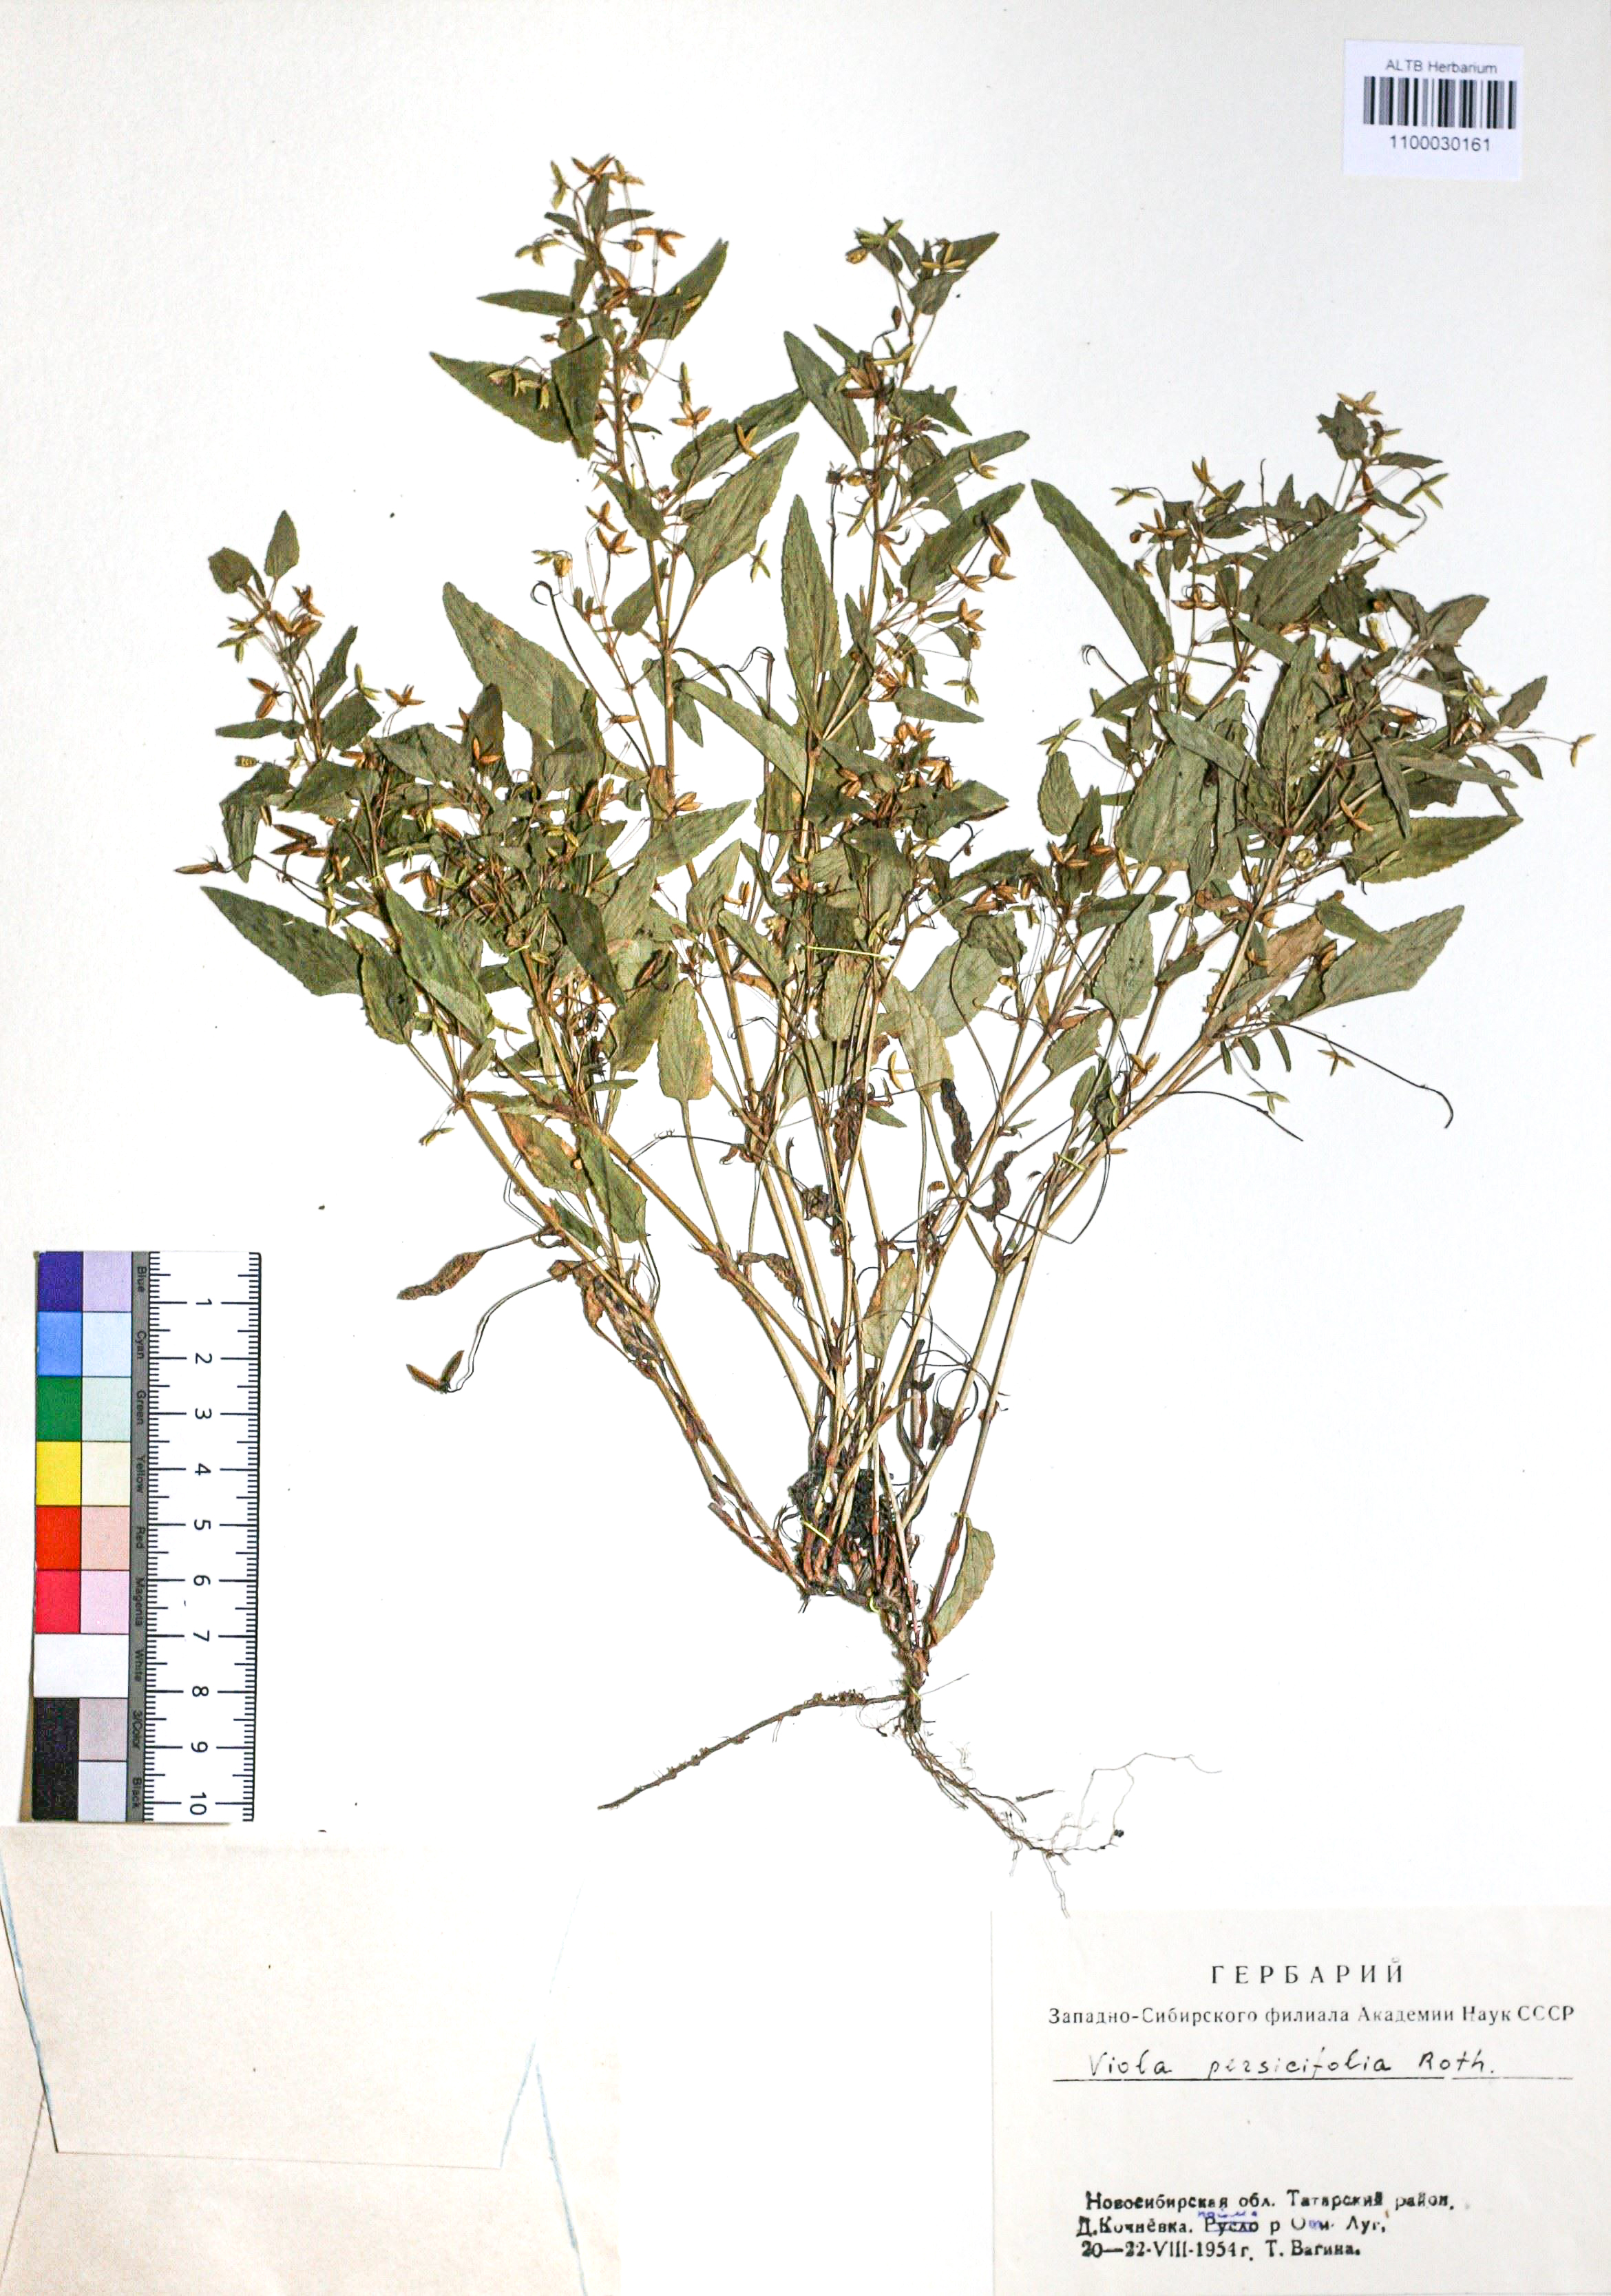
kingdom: Plantae
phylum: Tracheophyta
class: Magnoliopsida
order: Malpighiales
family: Violaceae
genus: Viola
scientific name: Viola stagnina
